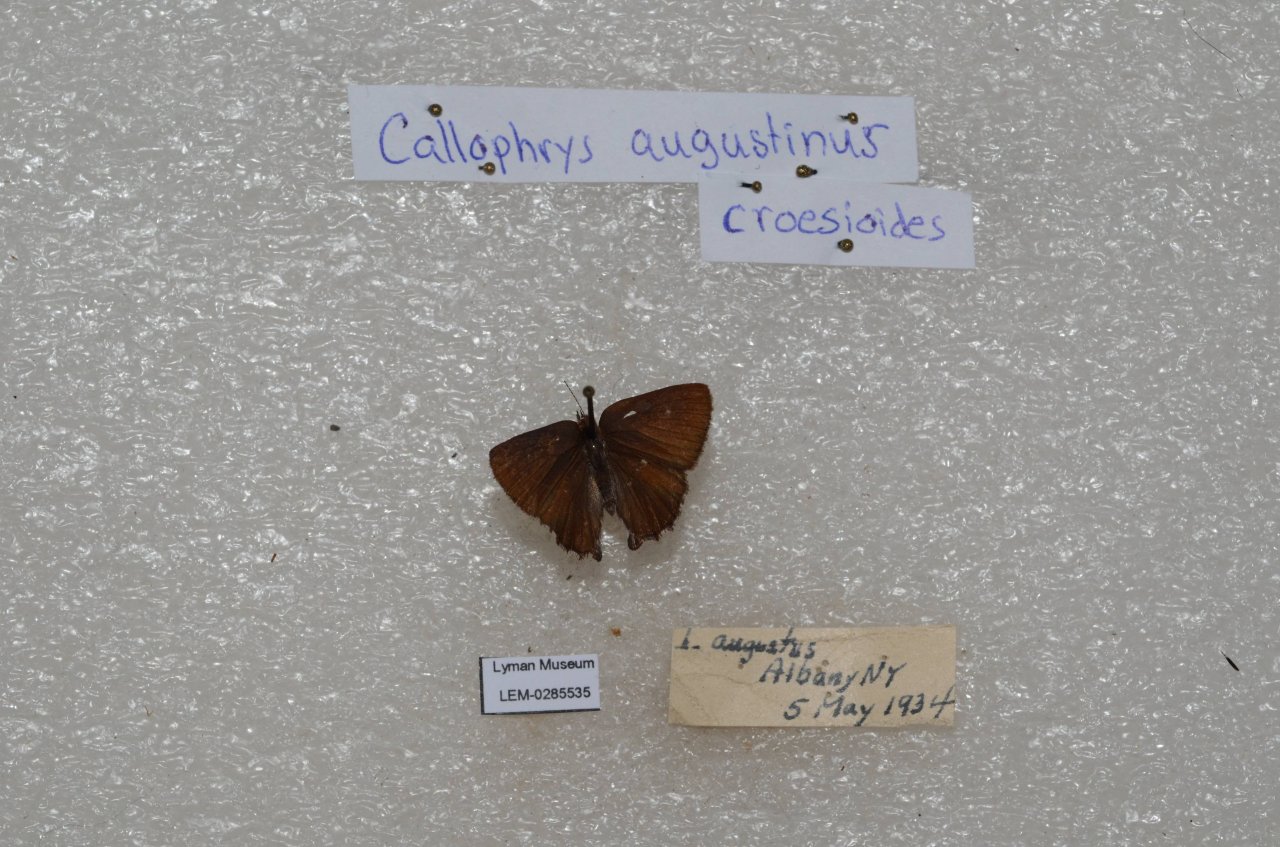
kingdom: Animalia
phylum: Arthropoda
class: Insecta
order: Lepidoptera
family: Lycaenidae
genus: Incisalia
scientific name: Incisalia irioides
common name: Brown Elfin
